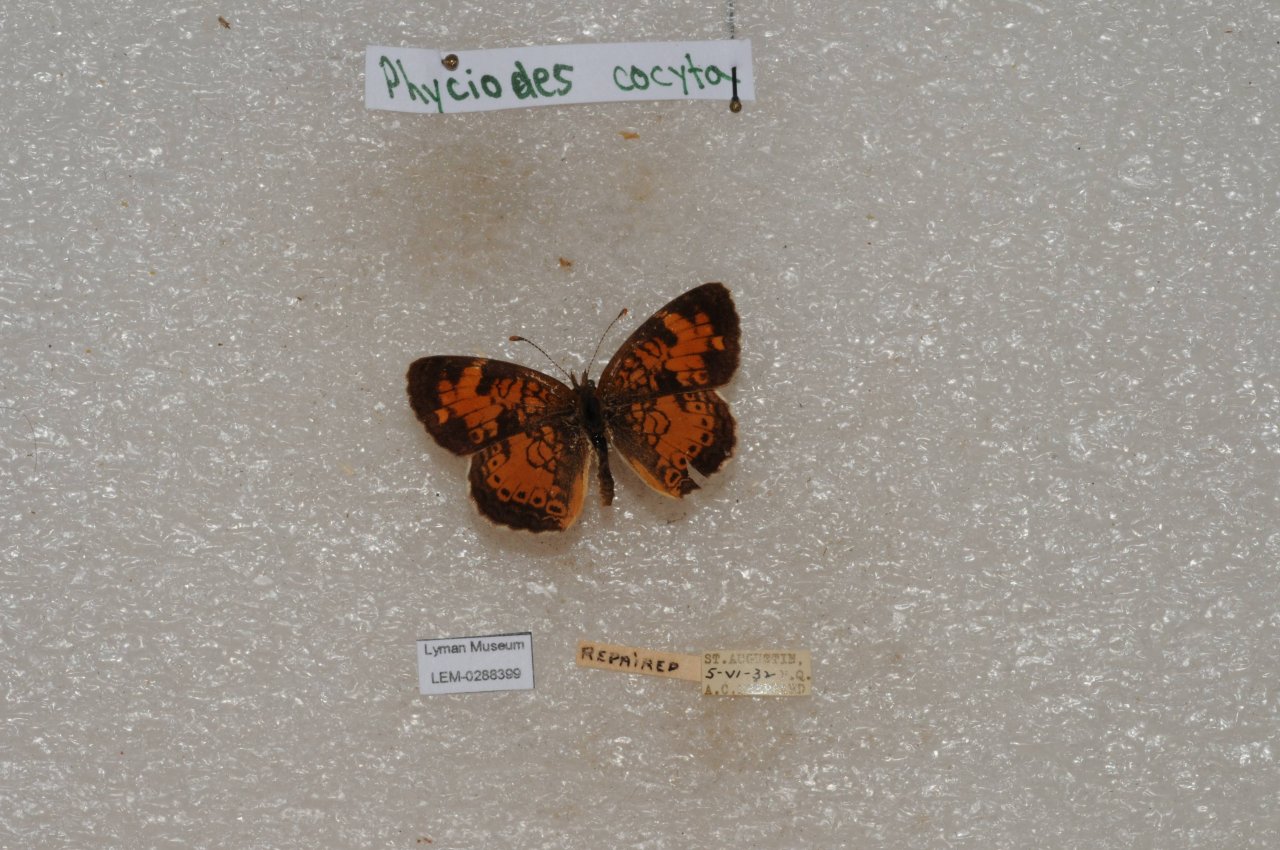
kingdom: Animalia
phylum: Arthropoda
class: Insecta
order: Lepidoptera
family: Nymphalidae
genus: Phyciodes
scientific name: Phyciodes tharos
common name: Northern Crescent
